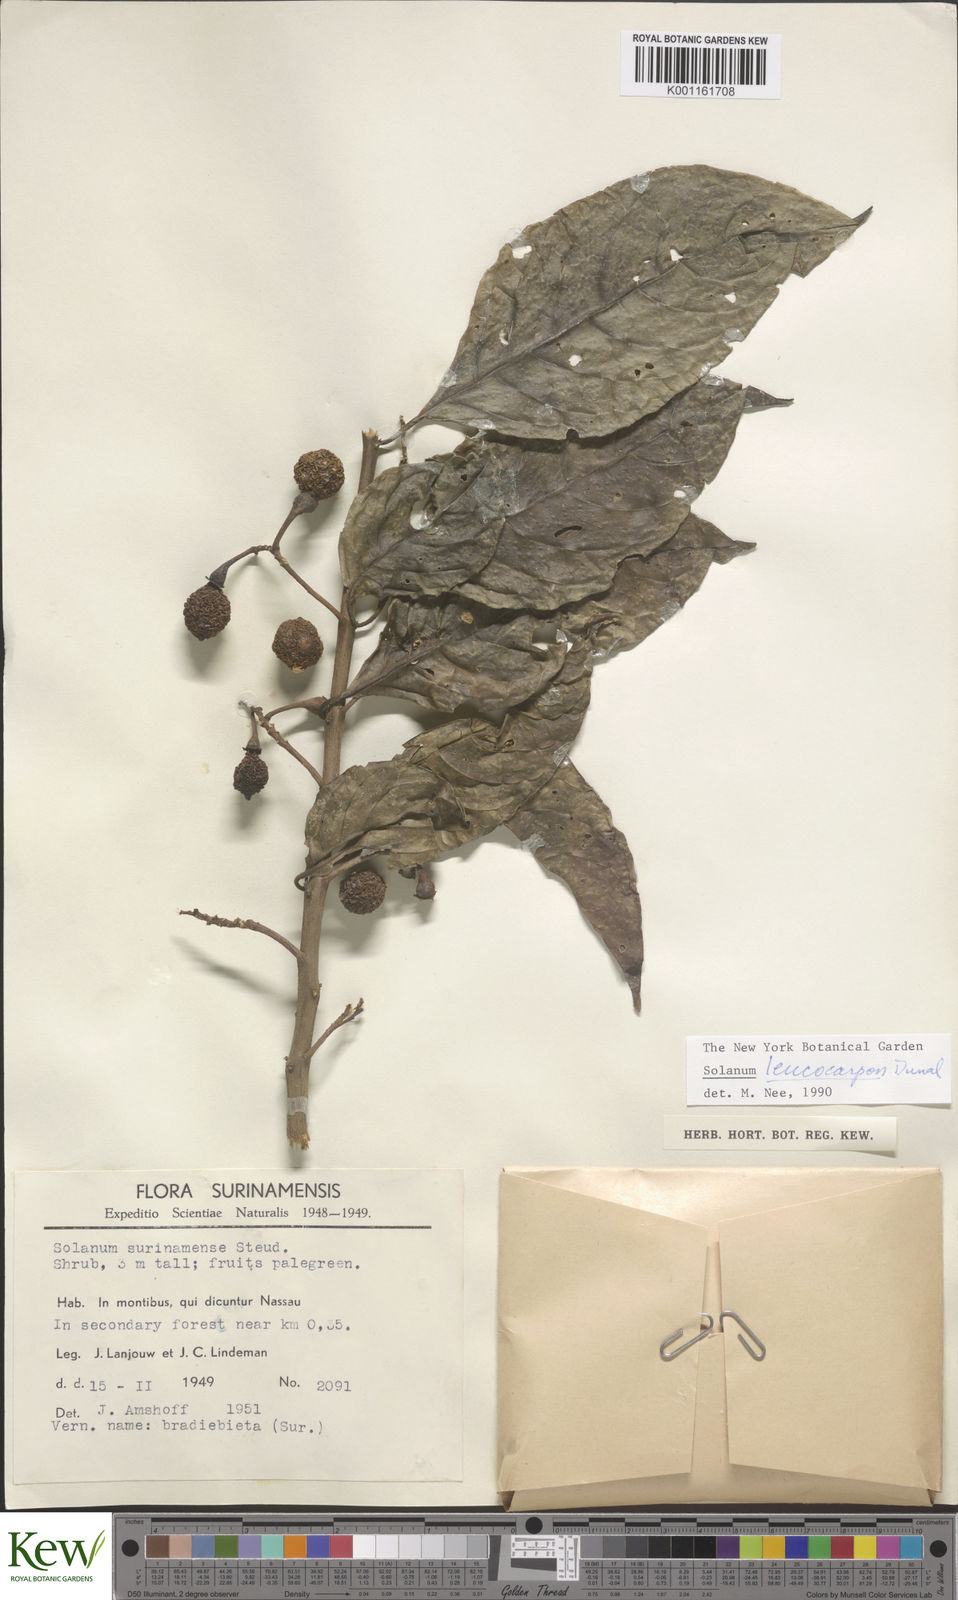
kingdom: Plantae
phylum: Tracheophyta
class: Magnoliopsida
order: Solanales
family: Solanaceae
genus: Solanum
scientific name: Solanum leucocarpon
